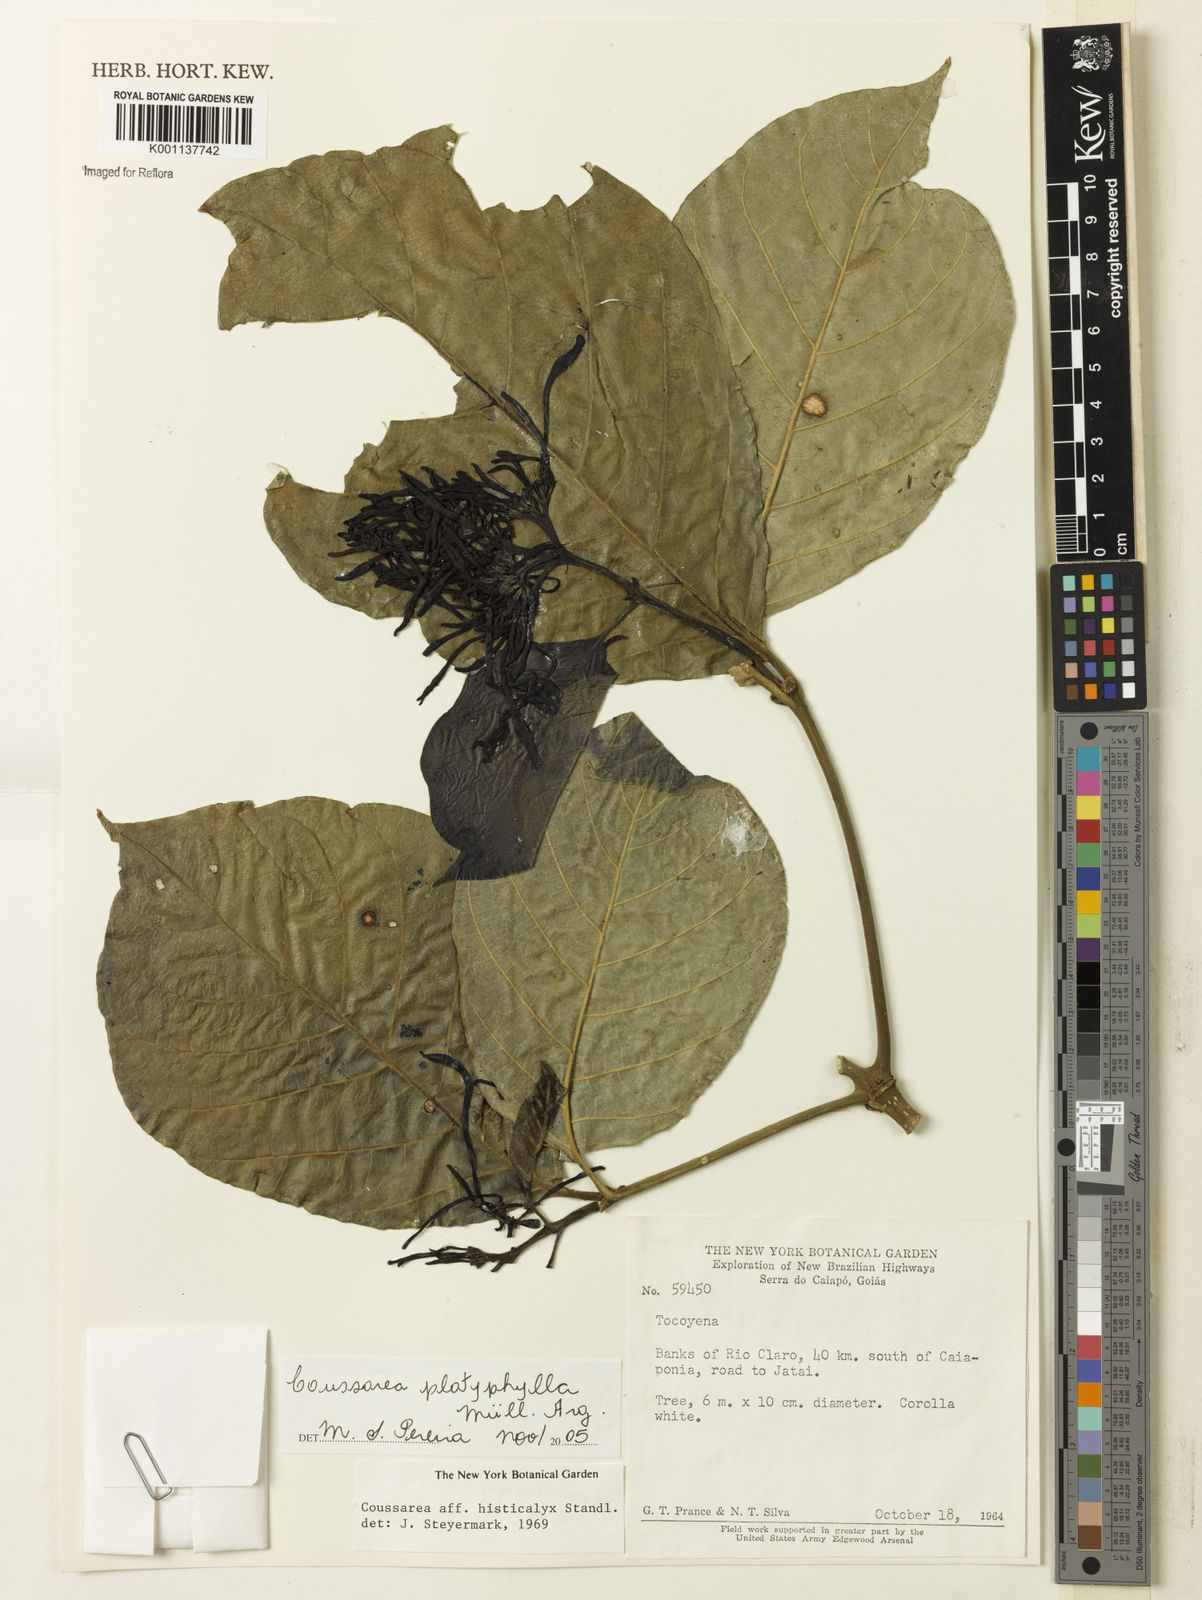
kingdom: Plantae
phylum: Tracheophyta
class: Magnoliopsida
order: Gentianales
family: Rubiaceae
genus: Coussarea
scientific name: Coussarea
